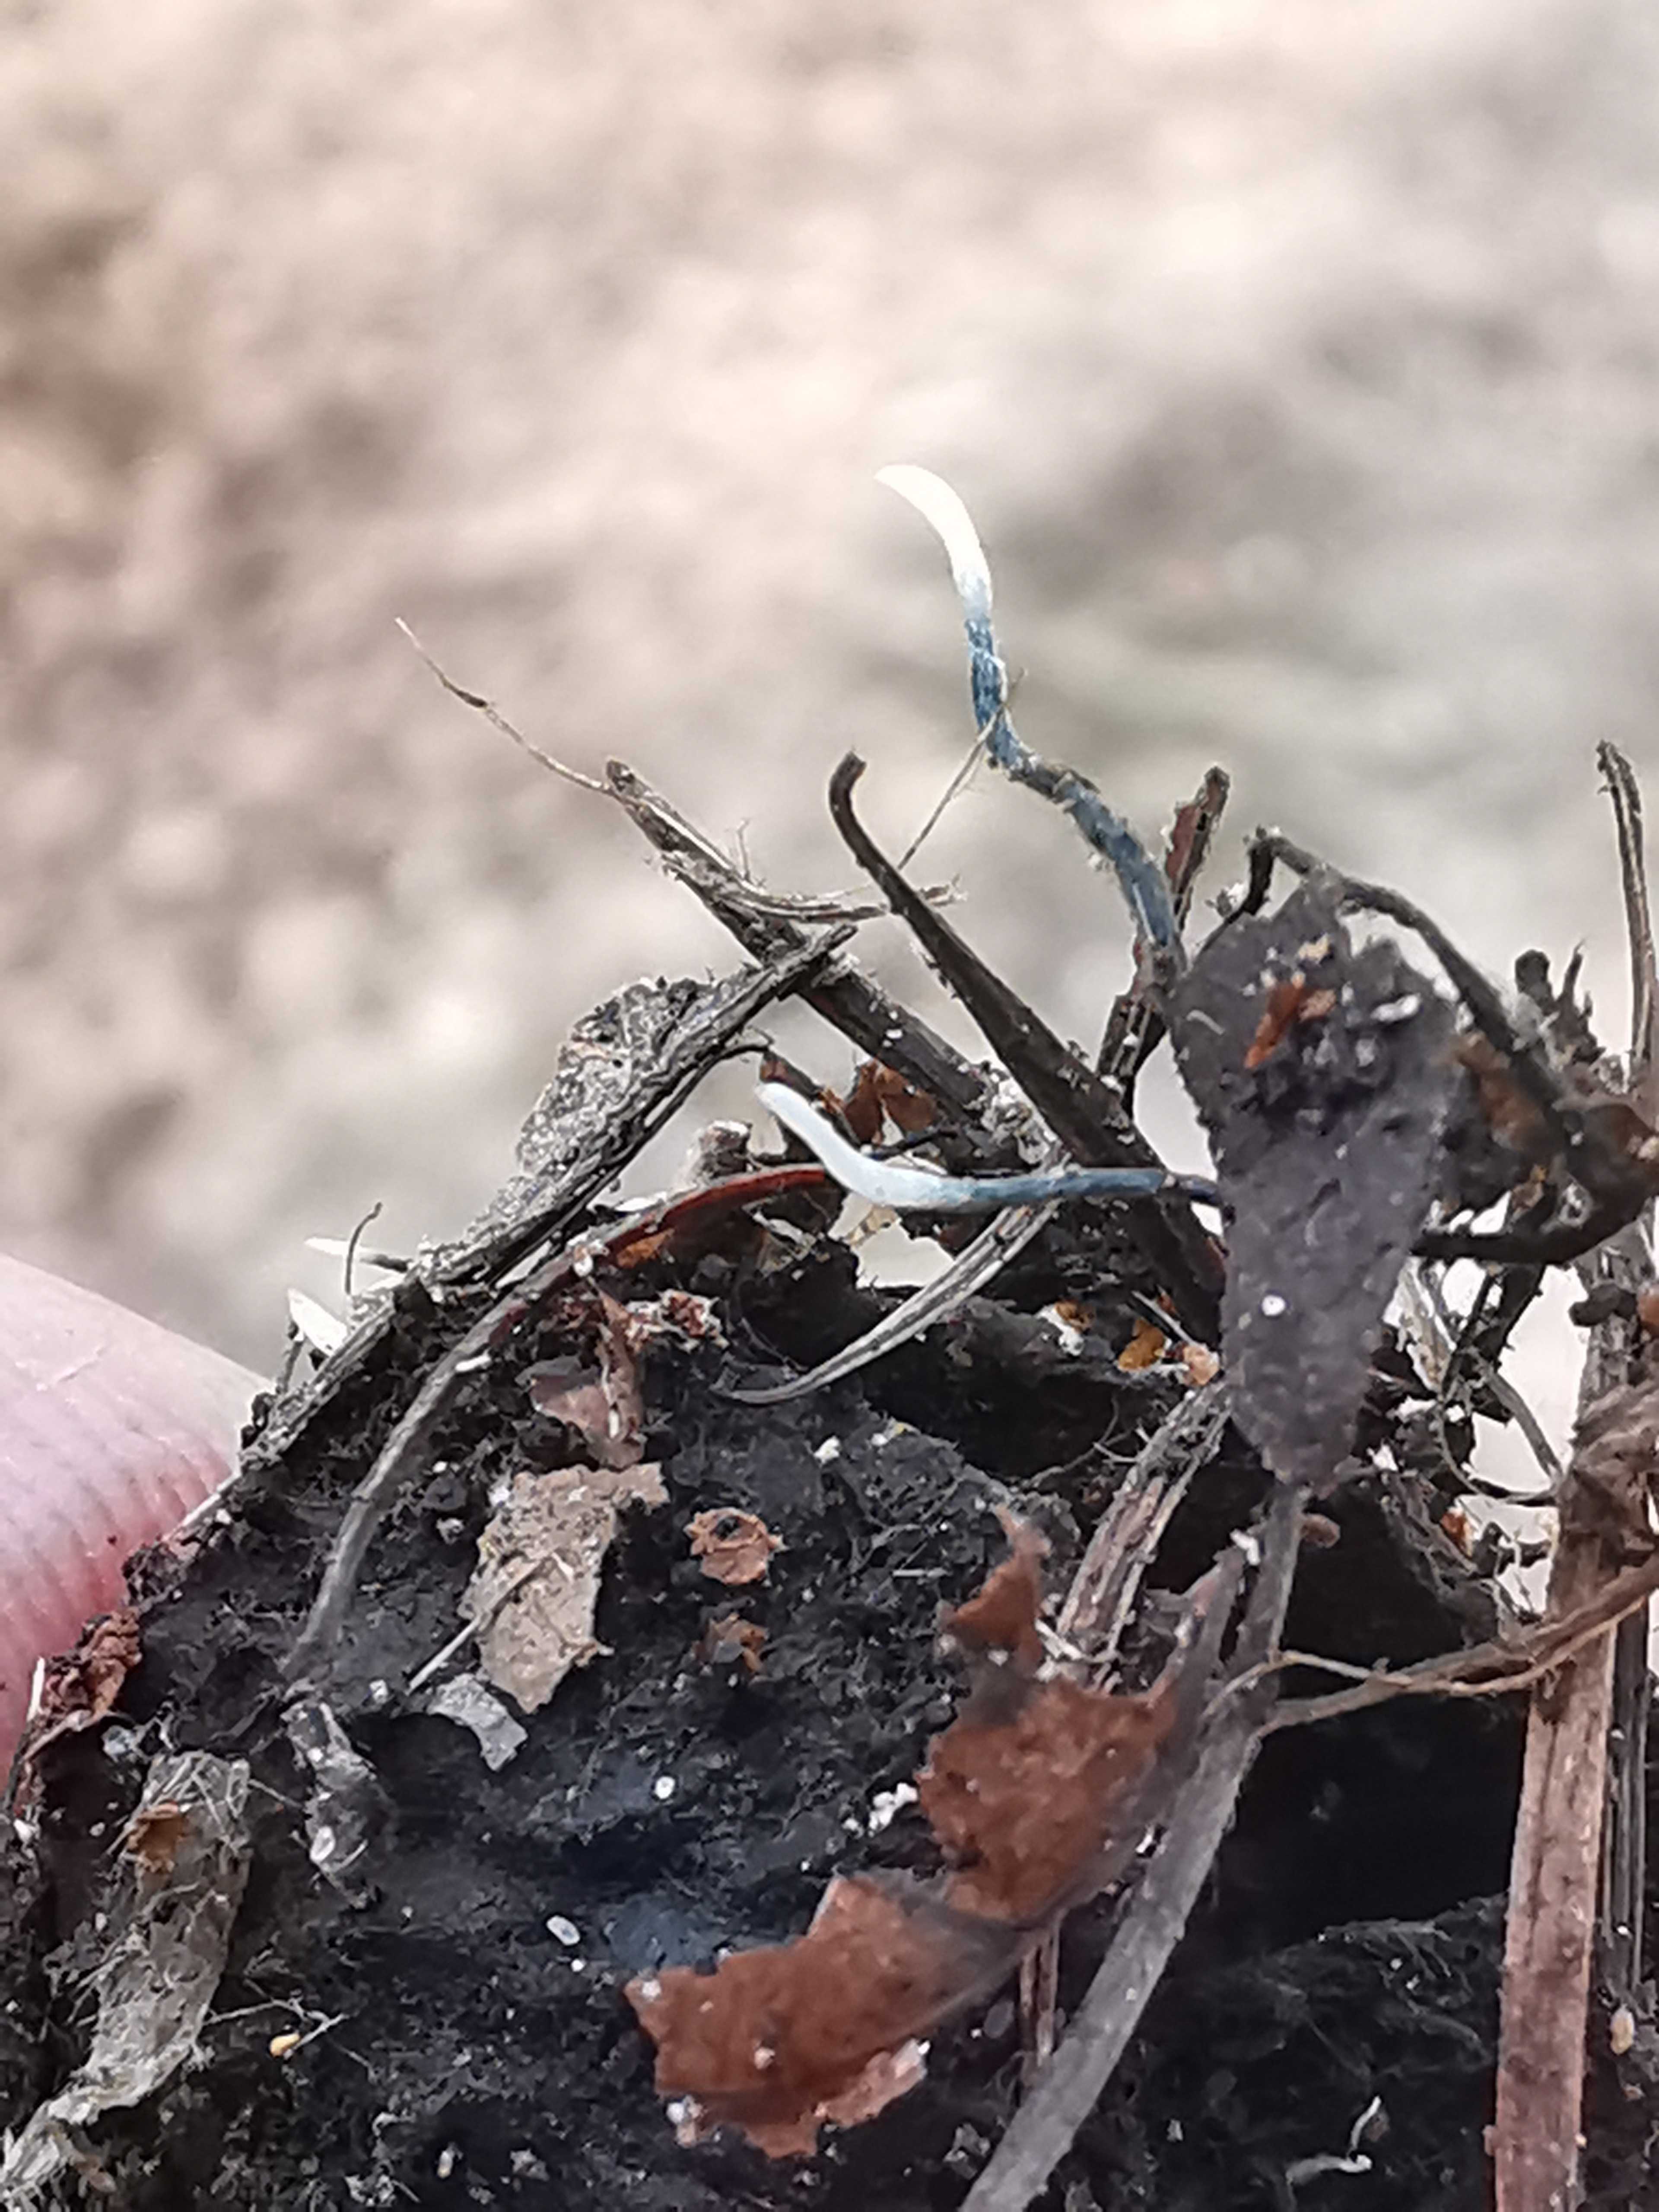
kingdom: Fungi
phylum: Ascomycota
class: Sordariomycetes
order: Xylariales
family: Xylariaceae
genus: Xylaria
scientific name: Xylaria carpophila
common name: bogskål-stødsvamp
